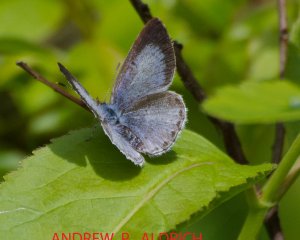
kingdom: Animalia
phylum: Arthropoda
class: Insecta
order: Lepidoptera
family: Lycaenidae
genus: Celastrina
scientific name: Celastrina
